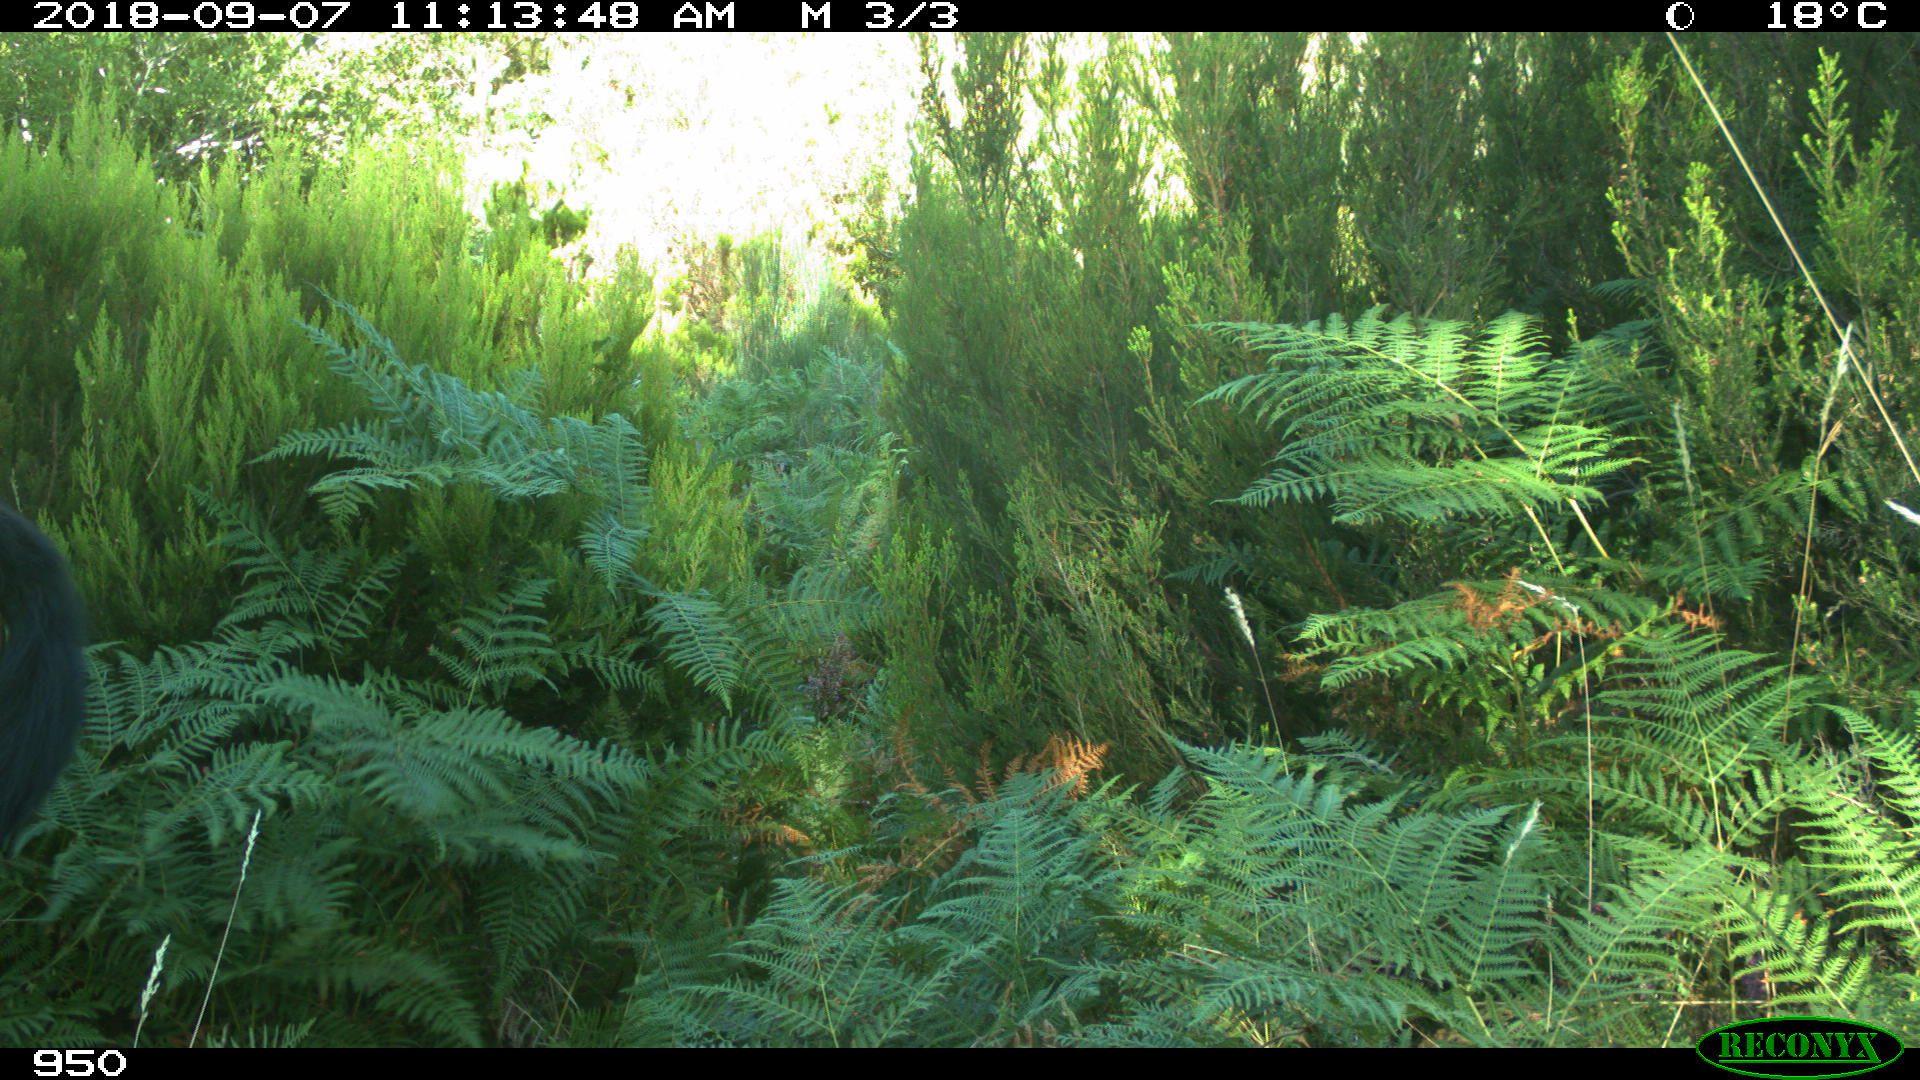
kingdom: Animalia
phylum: Chordata
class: Mammalia
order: Perissodactyla
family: Equidae
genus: Equus
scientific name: Equus caballus
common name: Horse
